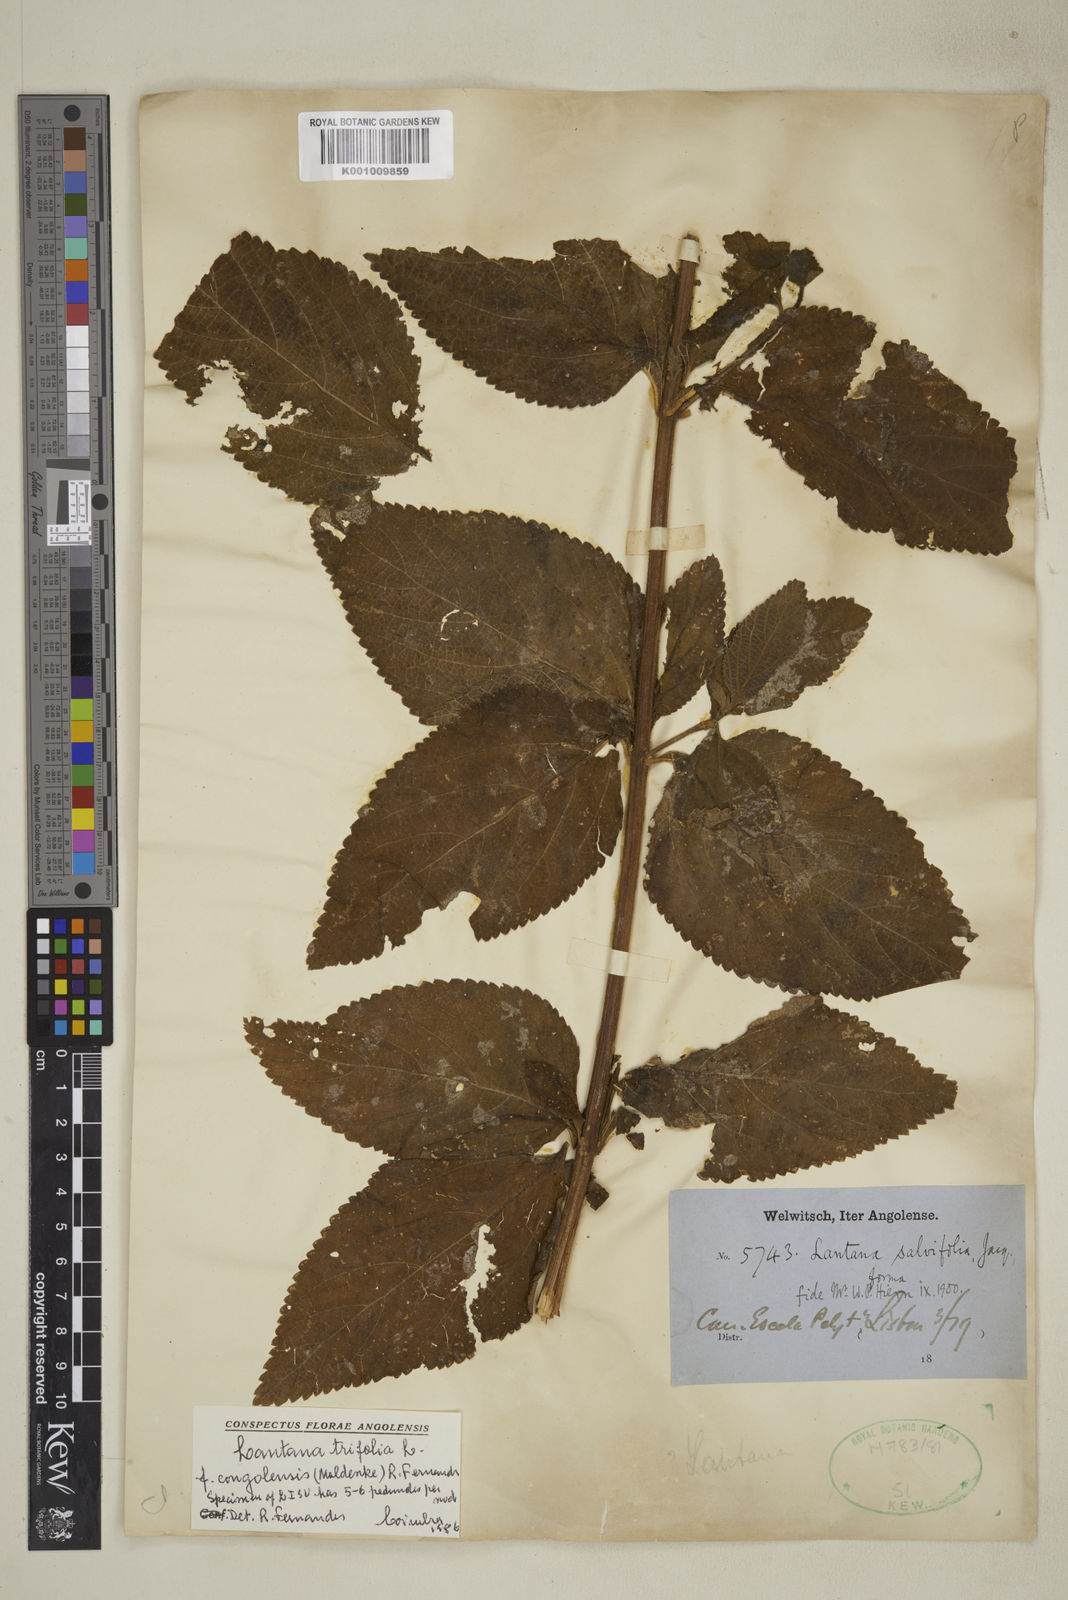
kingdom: Plantae
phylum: Tracheophyta
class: Magnoliopsida
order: Lamiales
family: Verbenaceae
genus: Lantana
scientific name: Lantana trifolia
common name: Sweet-sage
